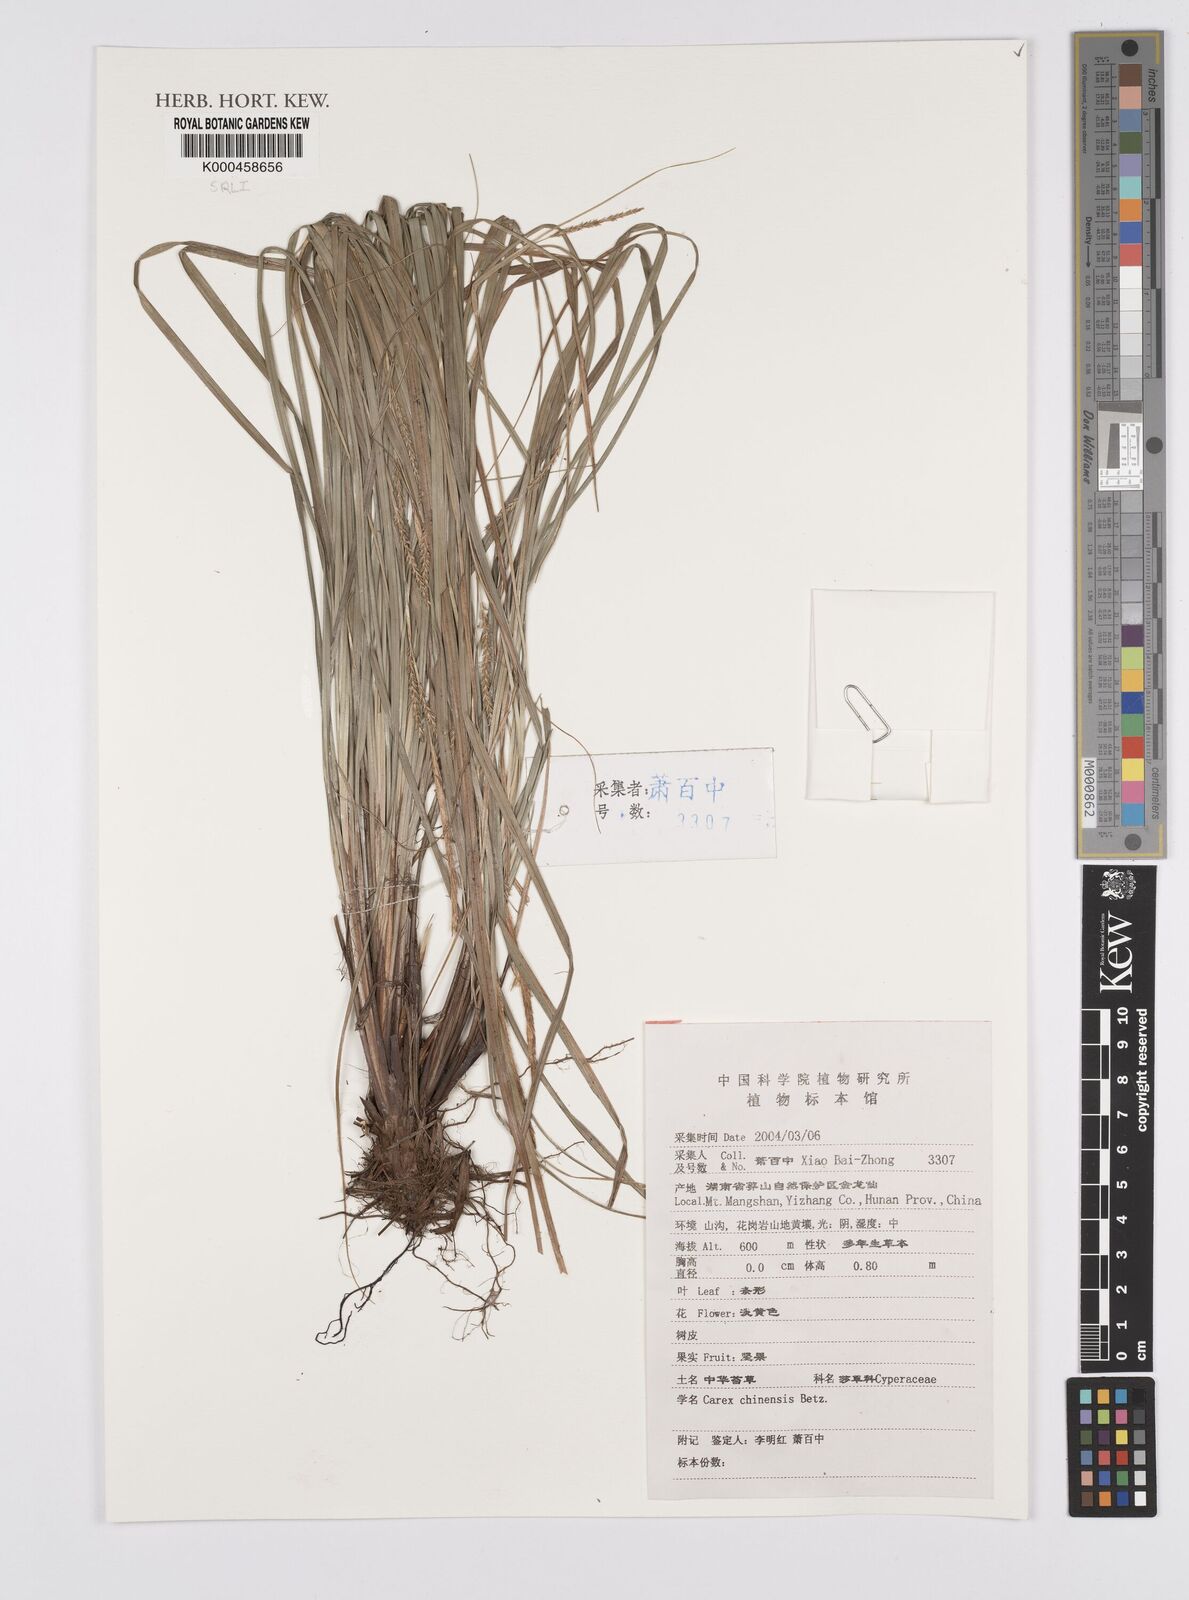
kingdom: Plantae
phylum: Tracheophyta
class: Liliopsida
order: Poales
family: Cyperaceae
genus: Carex
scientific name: Carex chinensis
